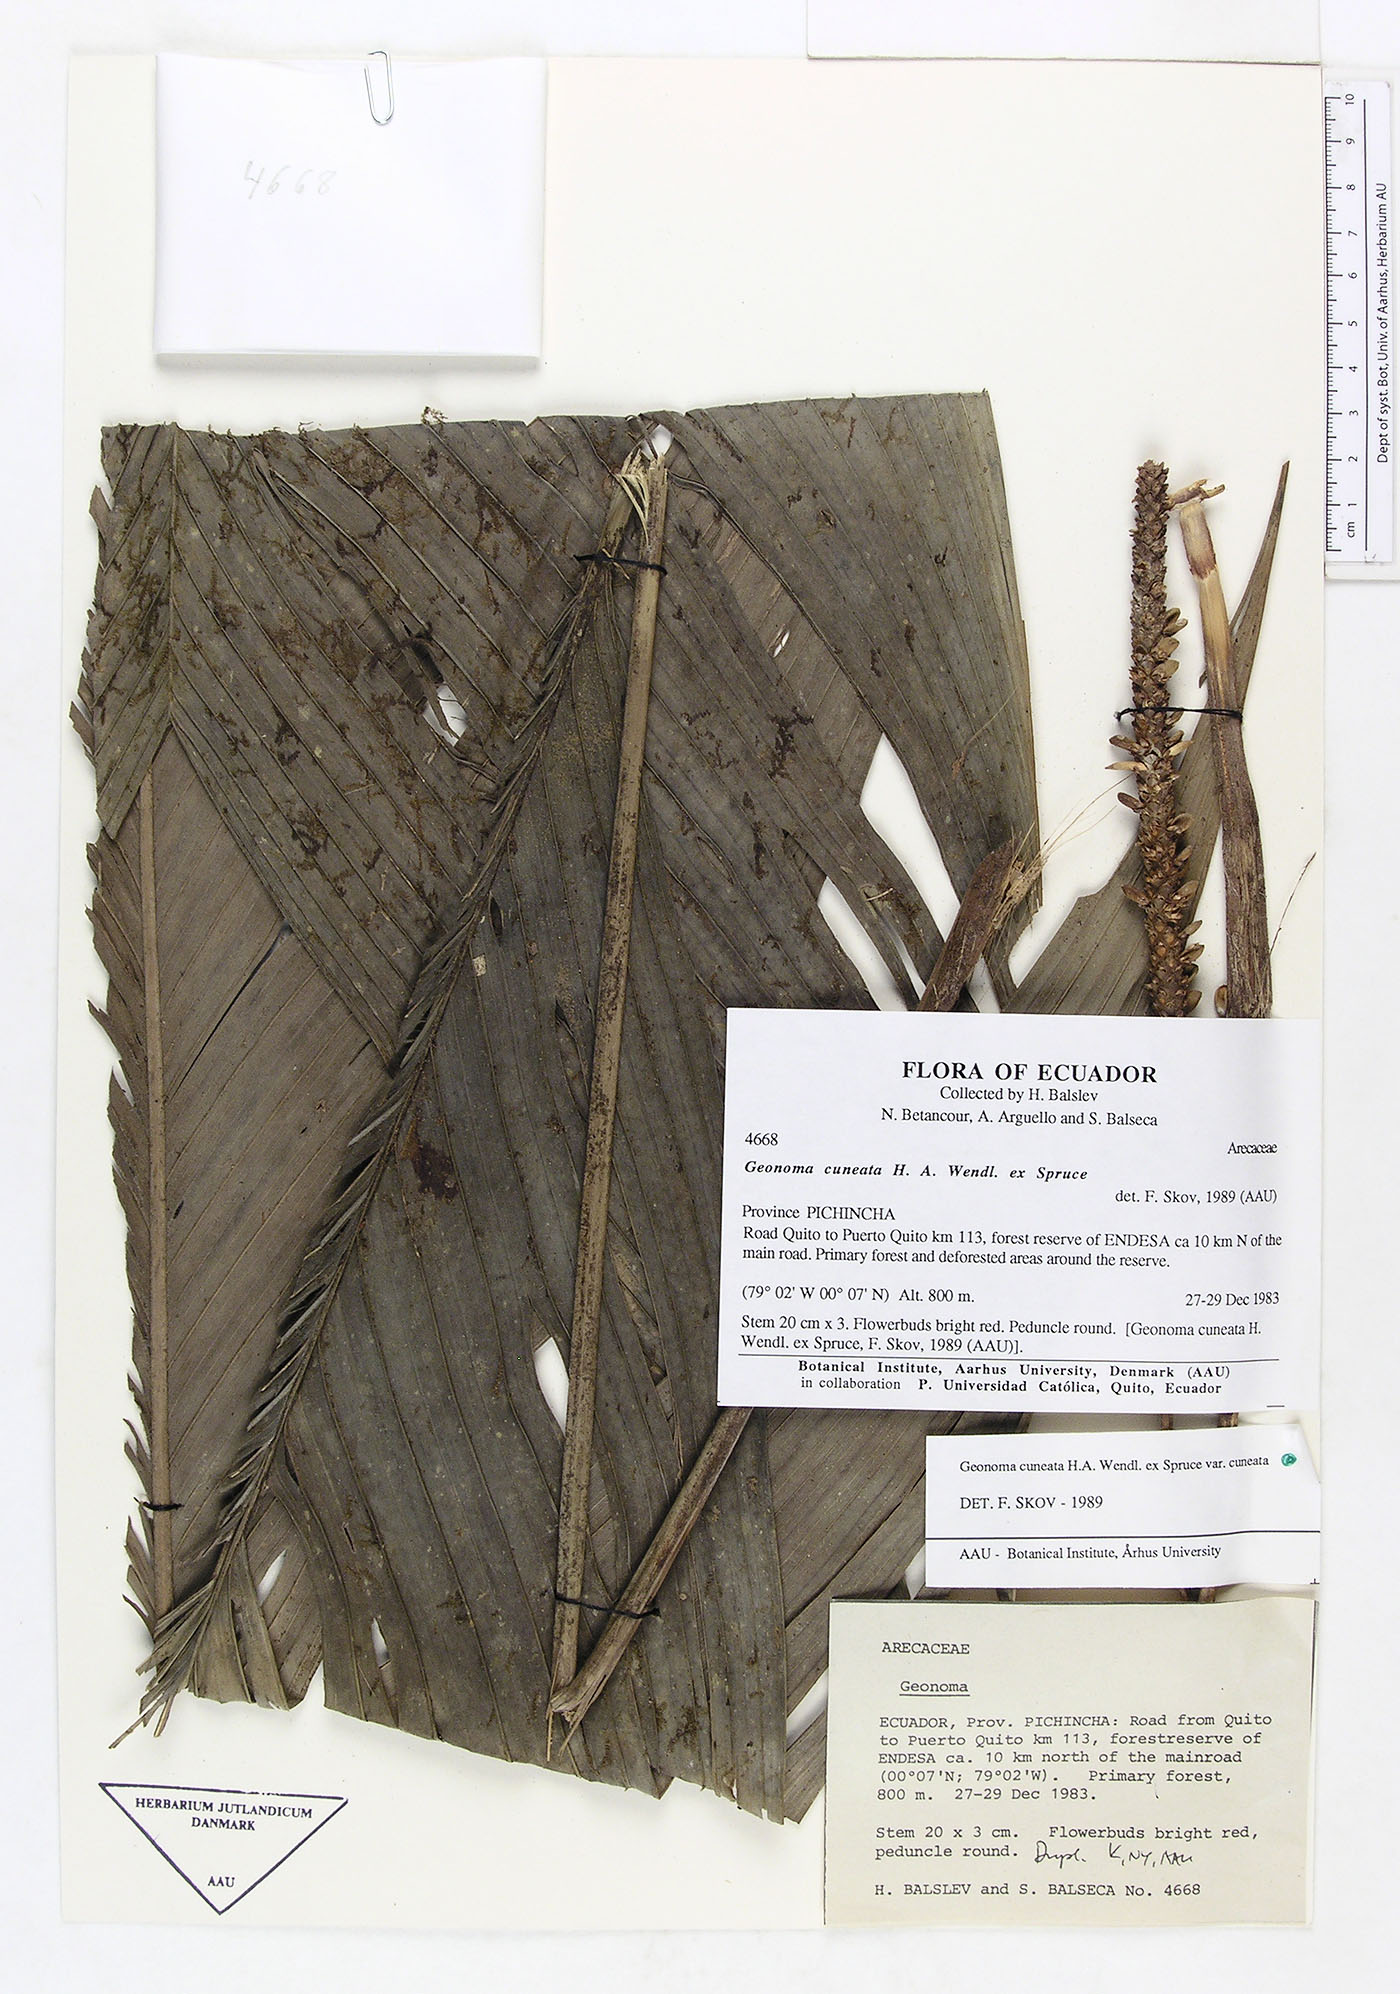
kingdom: Plantae
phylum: Tracheophyta
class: Liliopsida
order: Arecales
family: Arecaceae
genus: Geonoma
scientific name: Geonoma cuneata
